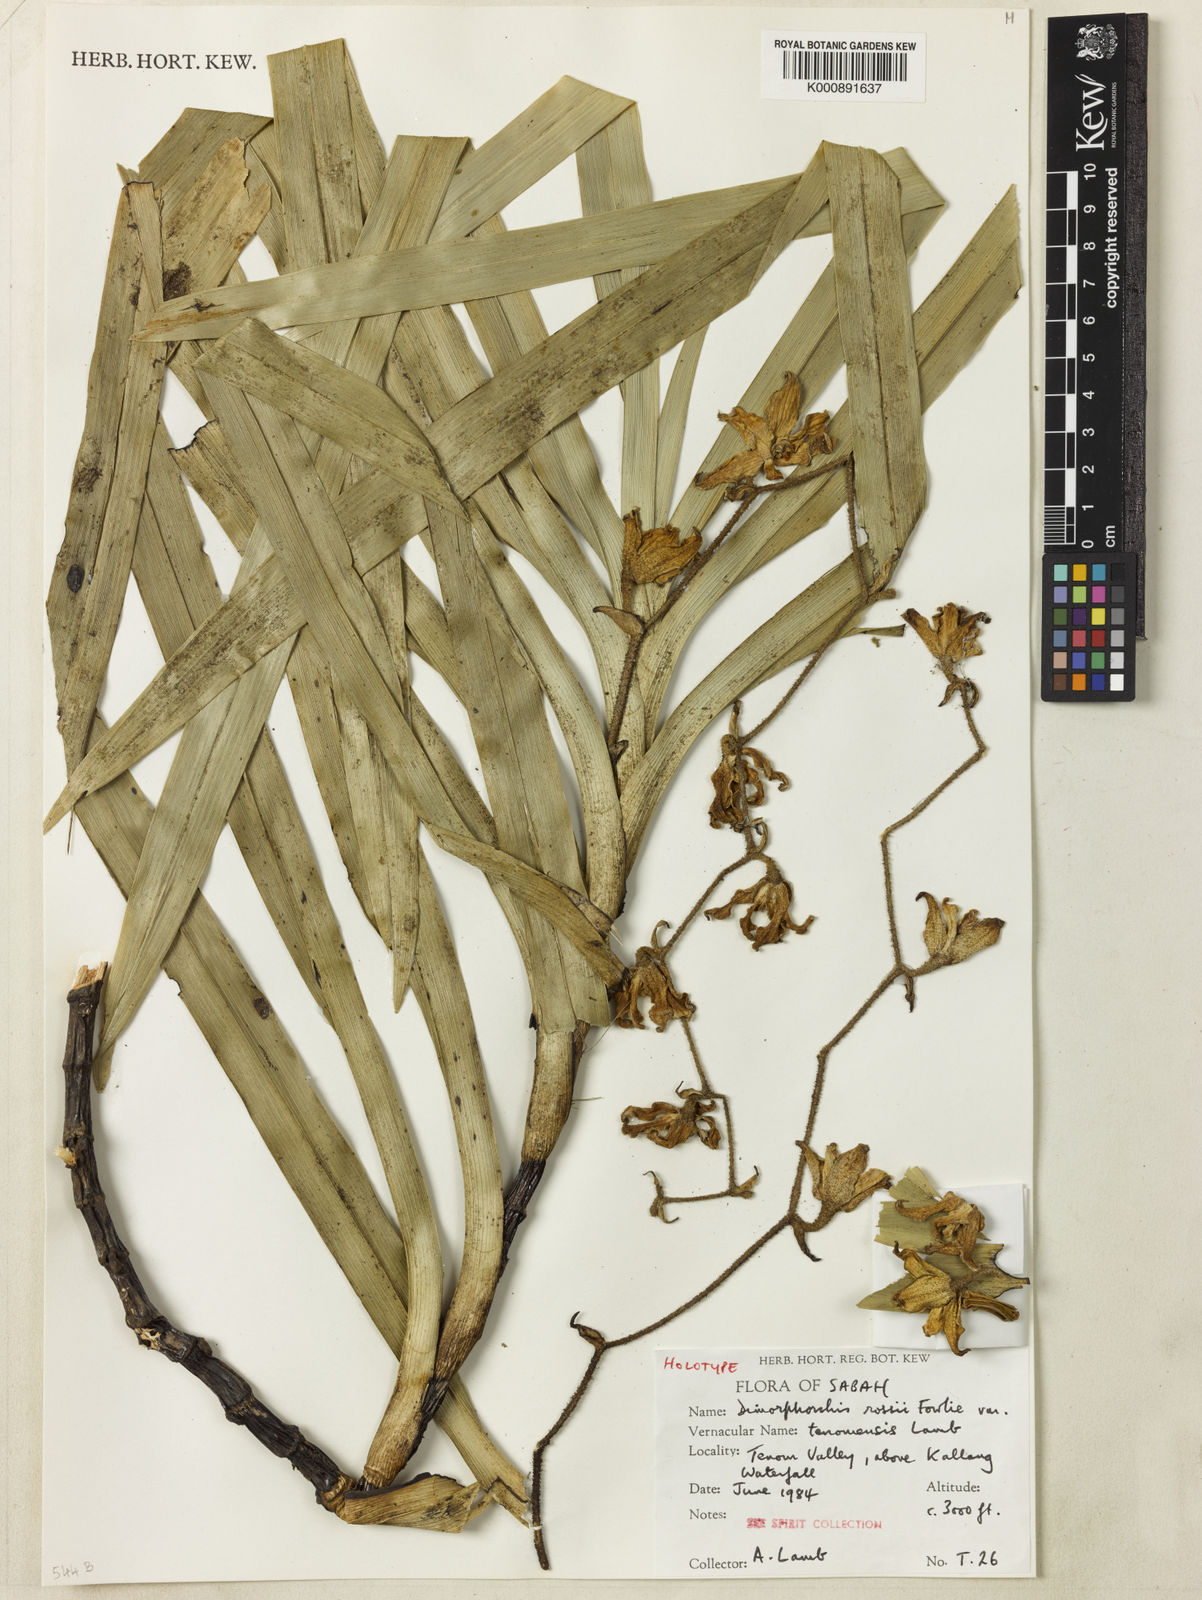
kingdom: Plantae
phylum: Tracheophyta
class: Liliopsida
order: Asparagales
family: Orchidaceae
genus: Dimorphorchis
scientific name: Dimorphorchis tenomensis
